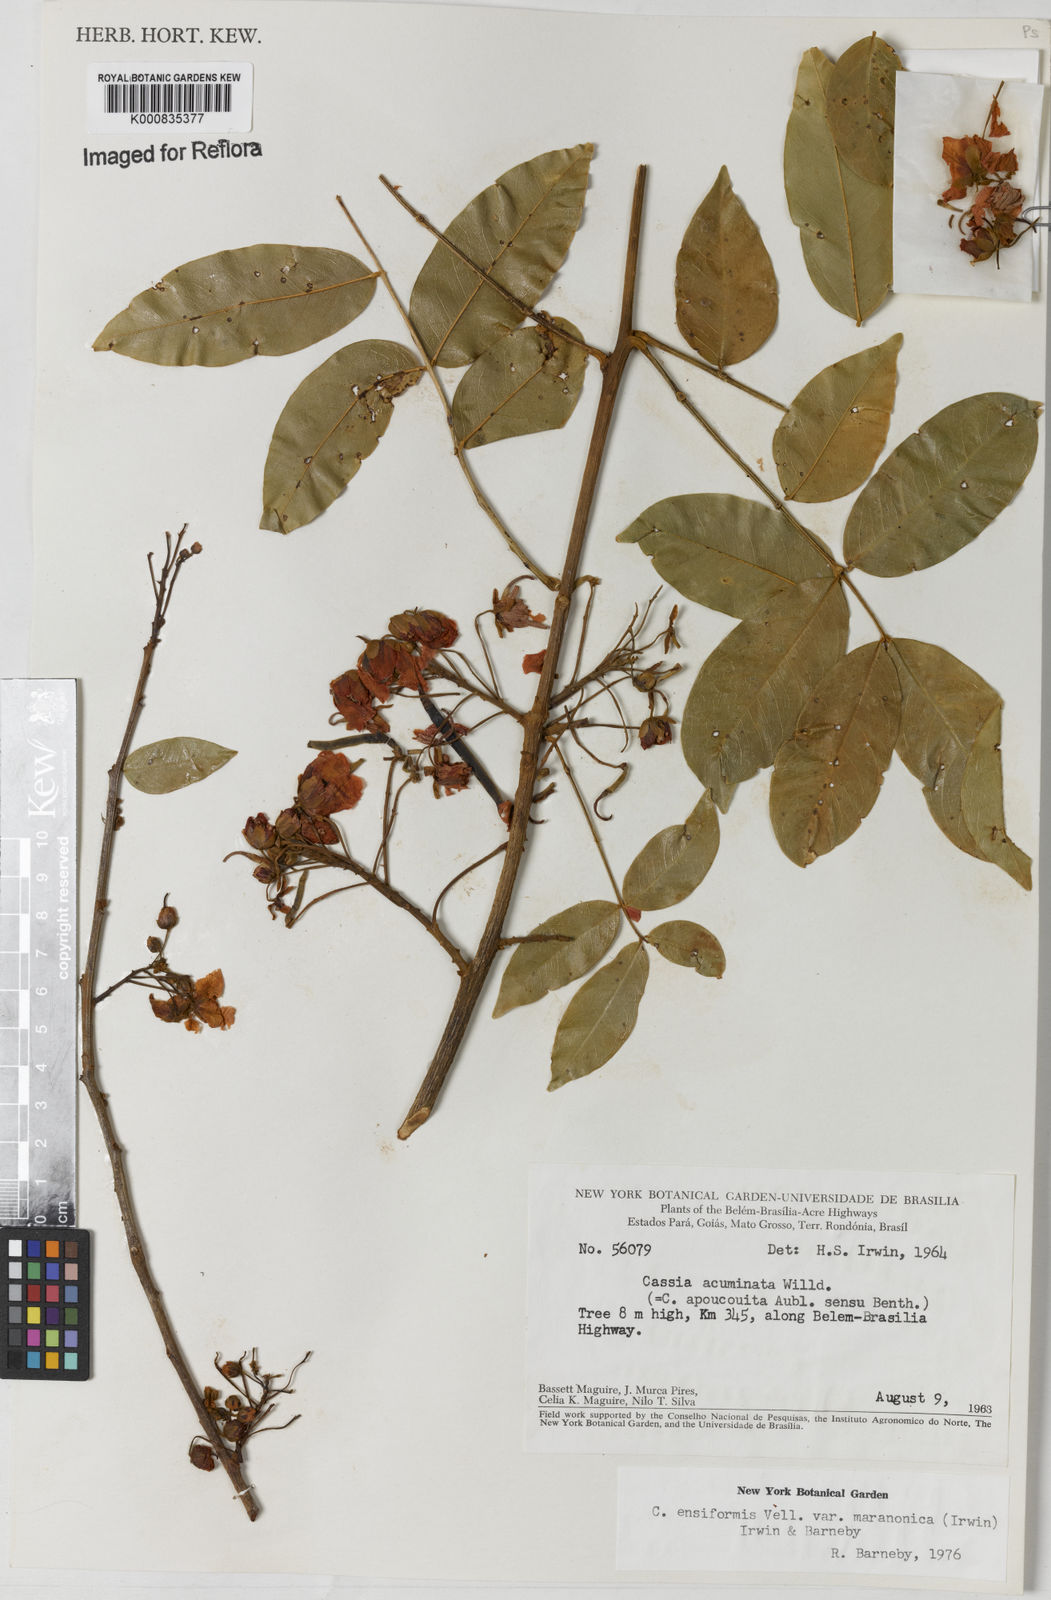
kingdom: Plantae
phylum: Tracheophyta
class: Magnoliopsida
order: Fabales
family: Fabaceae
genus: Chamaecrista
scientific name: Chamaecrista ensiformis
